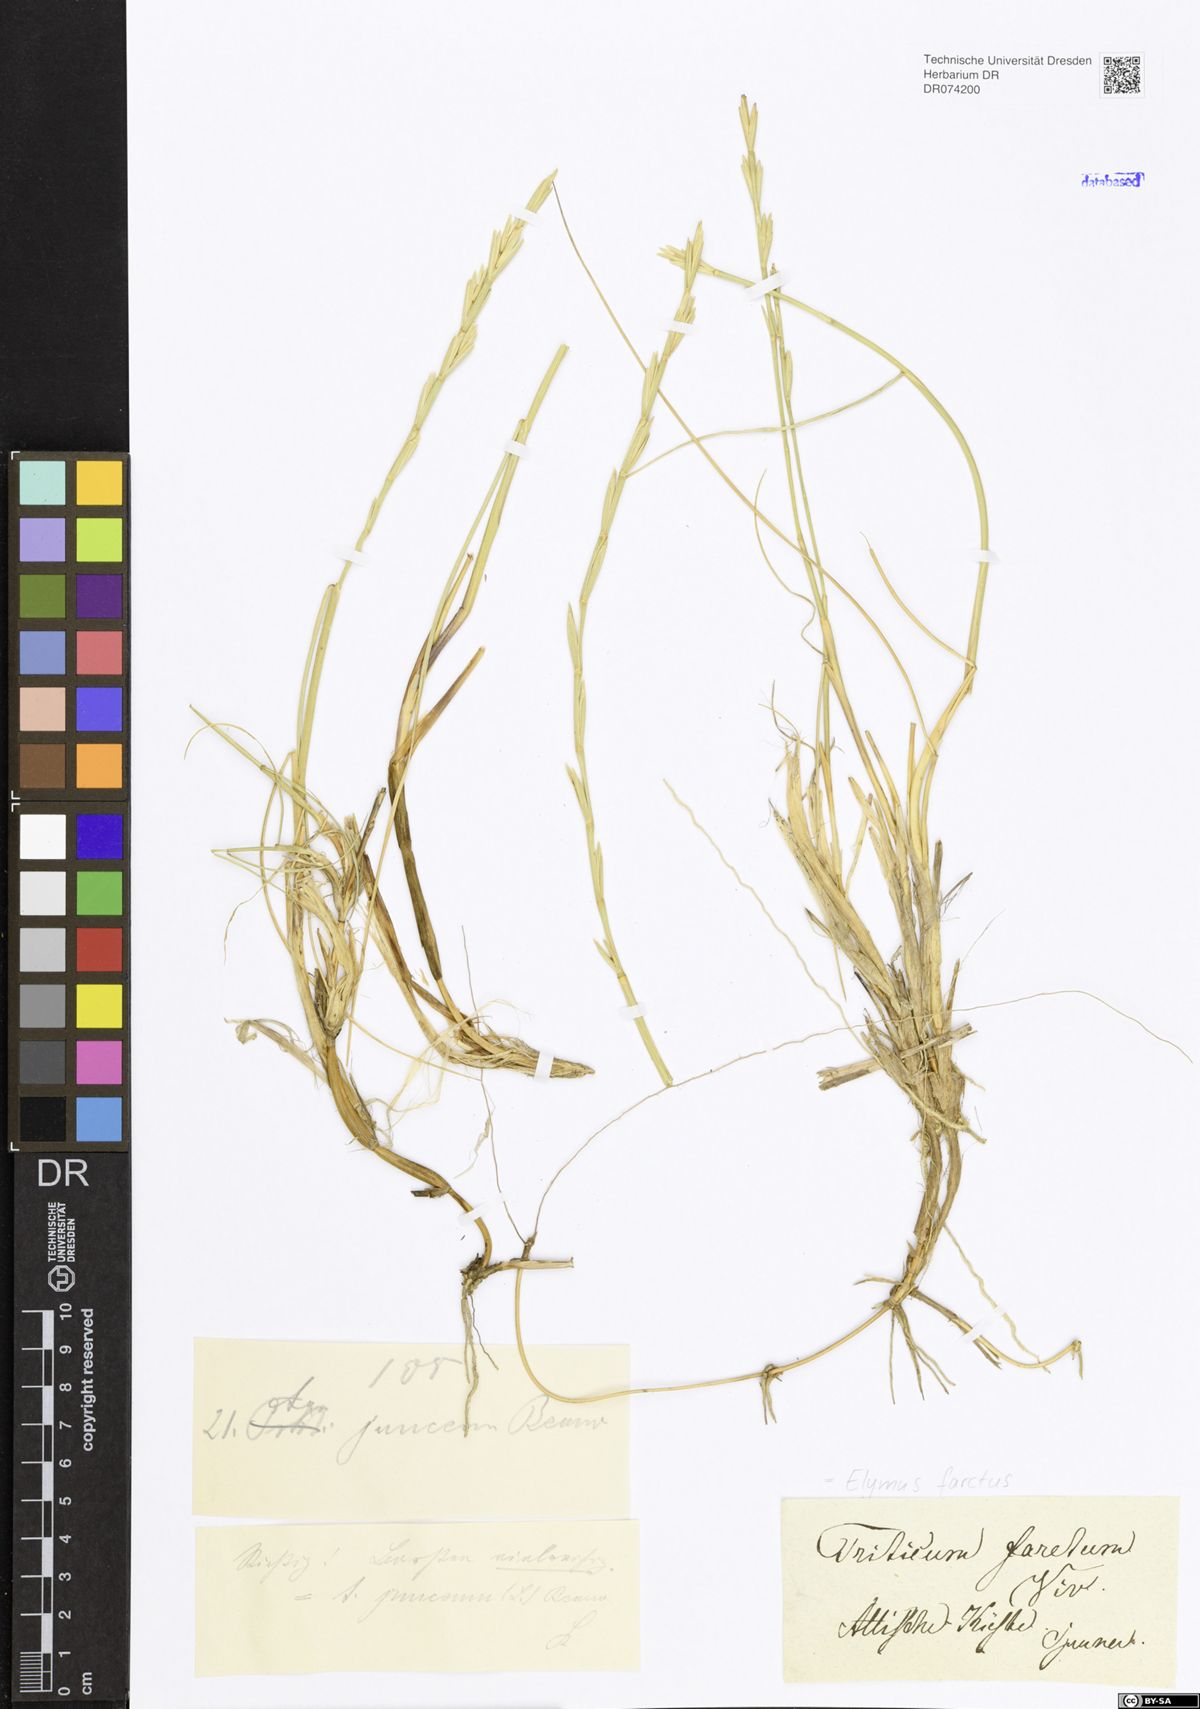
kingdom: Plantae
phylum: Tracheophyta
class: Liliopsida
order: Poales
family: Poaceae
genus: Thinopyrum
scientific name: Thinopyrum junceum
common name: Russian wheatgrass
